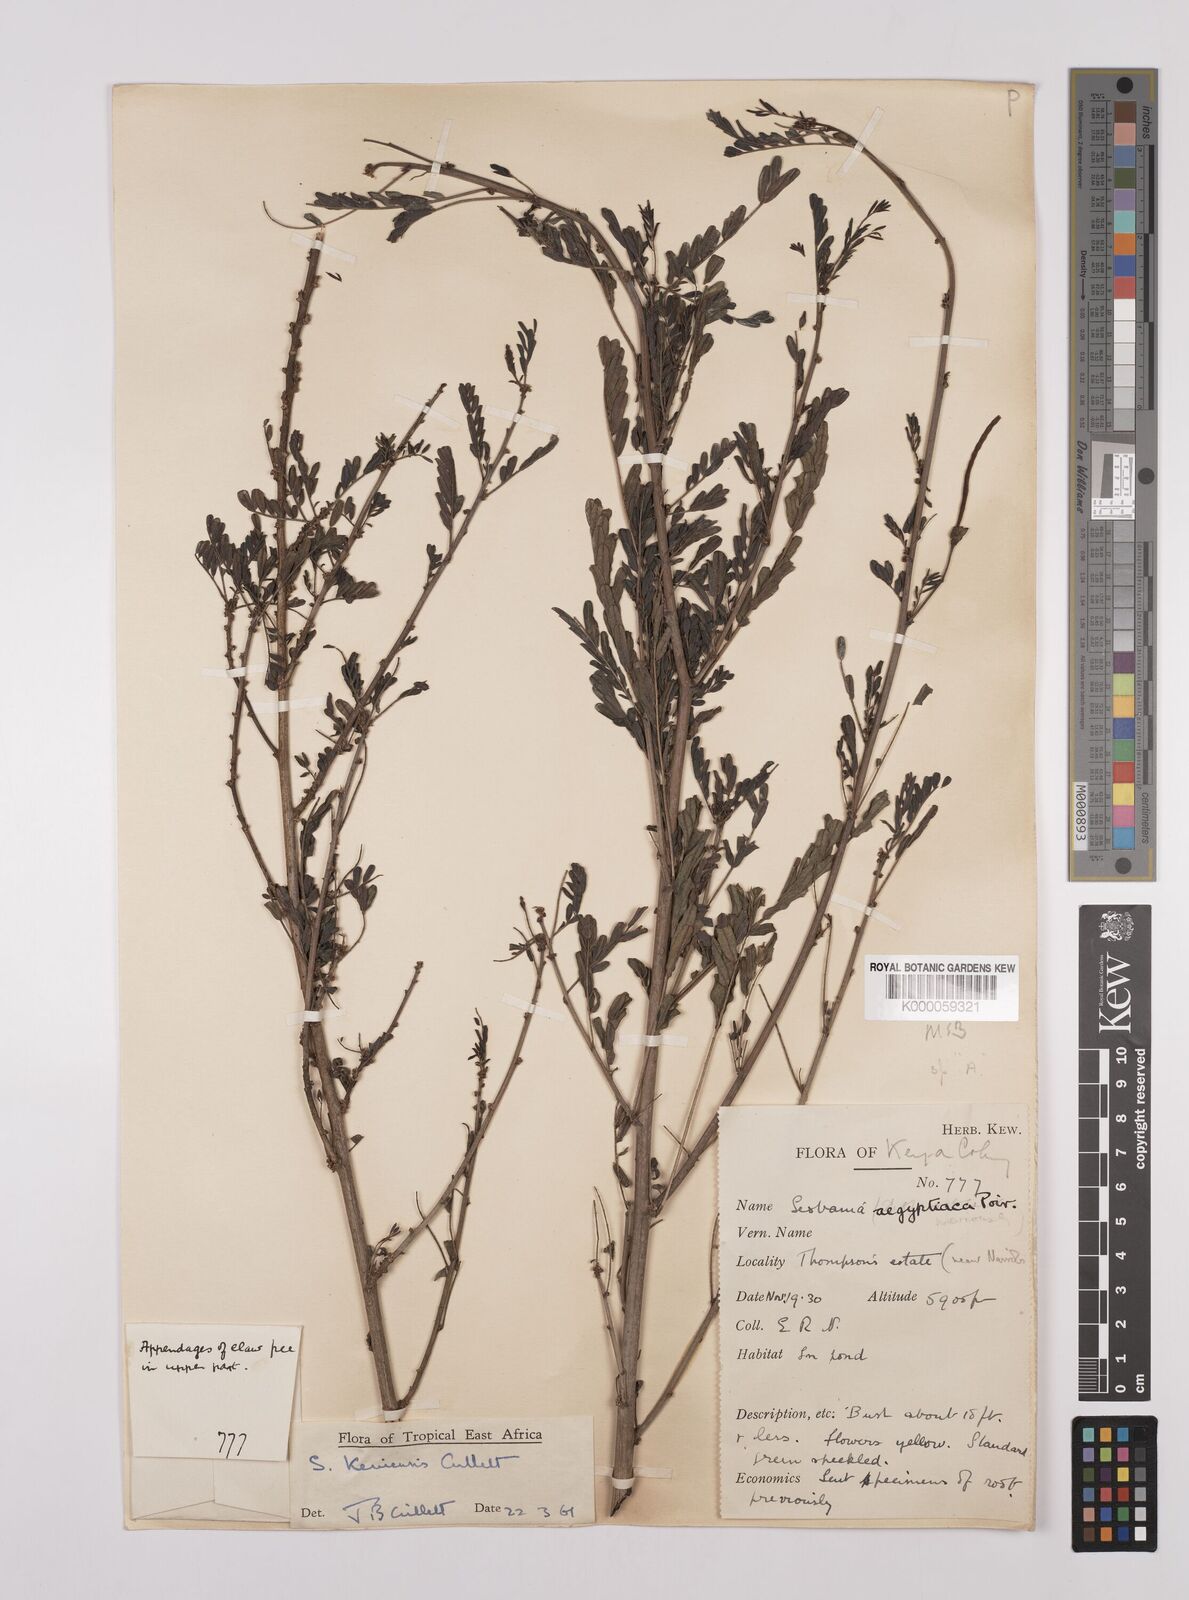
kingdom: Plantae
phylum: Tracheophyta
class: Magnoliopsida
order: Fabales
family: Fabaceae
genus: Sesbania
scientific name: Sesbania keniensis
